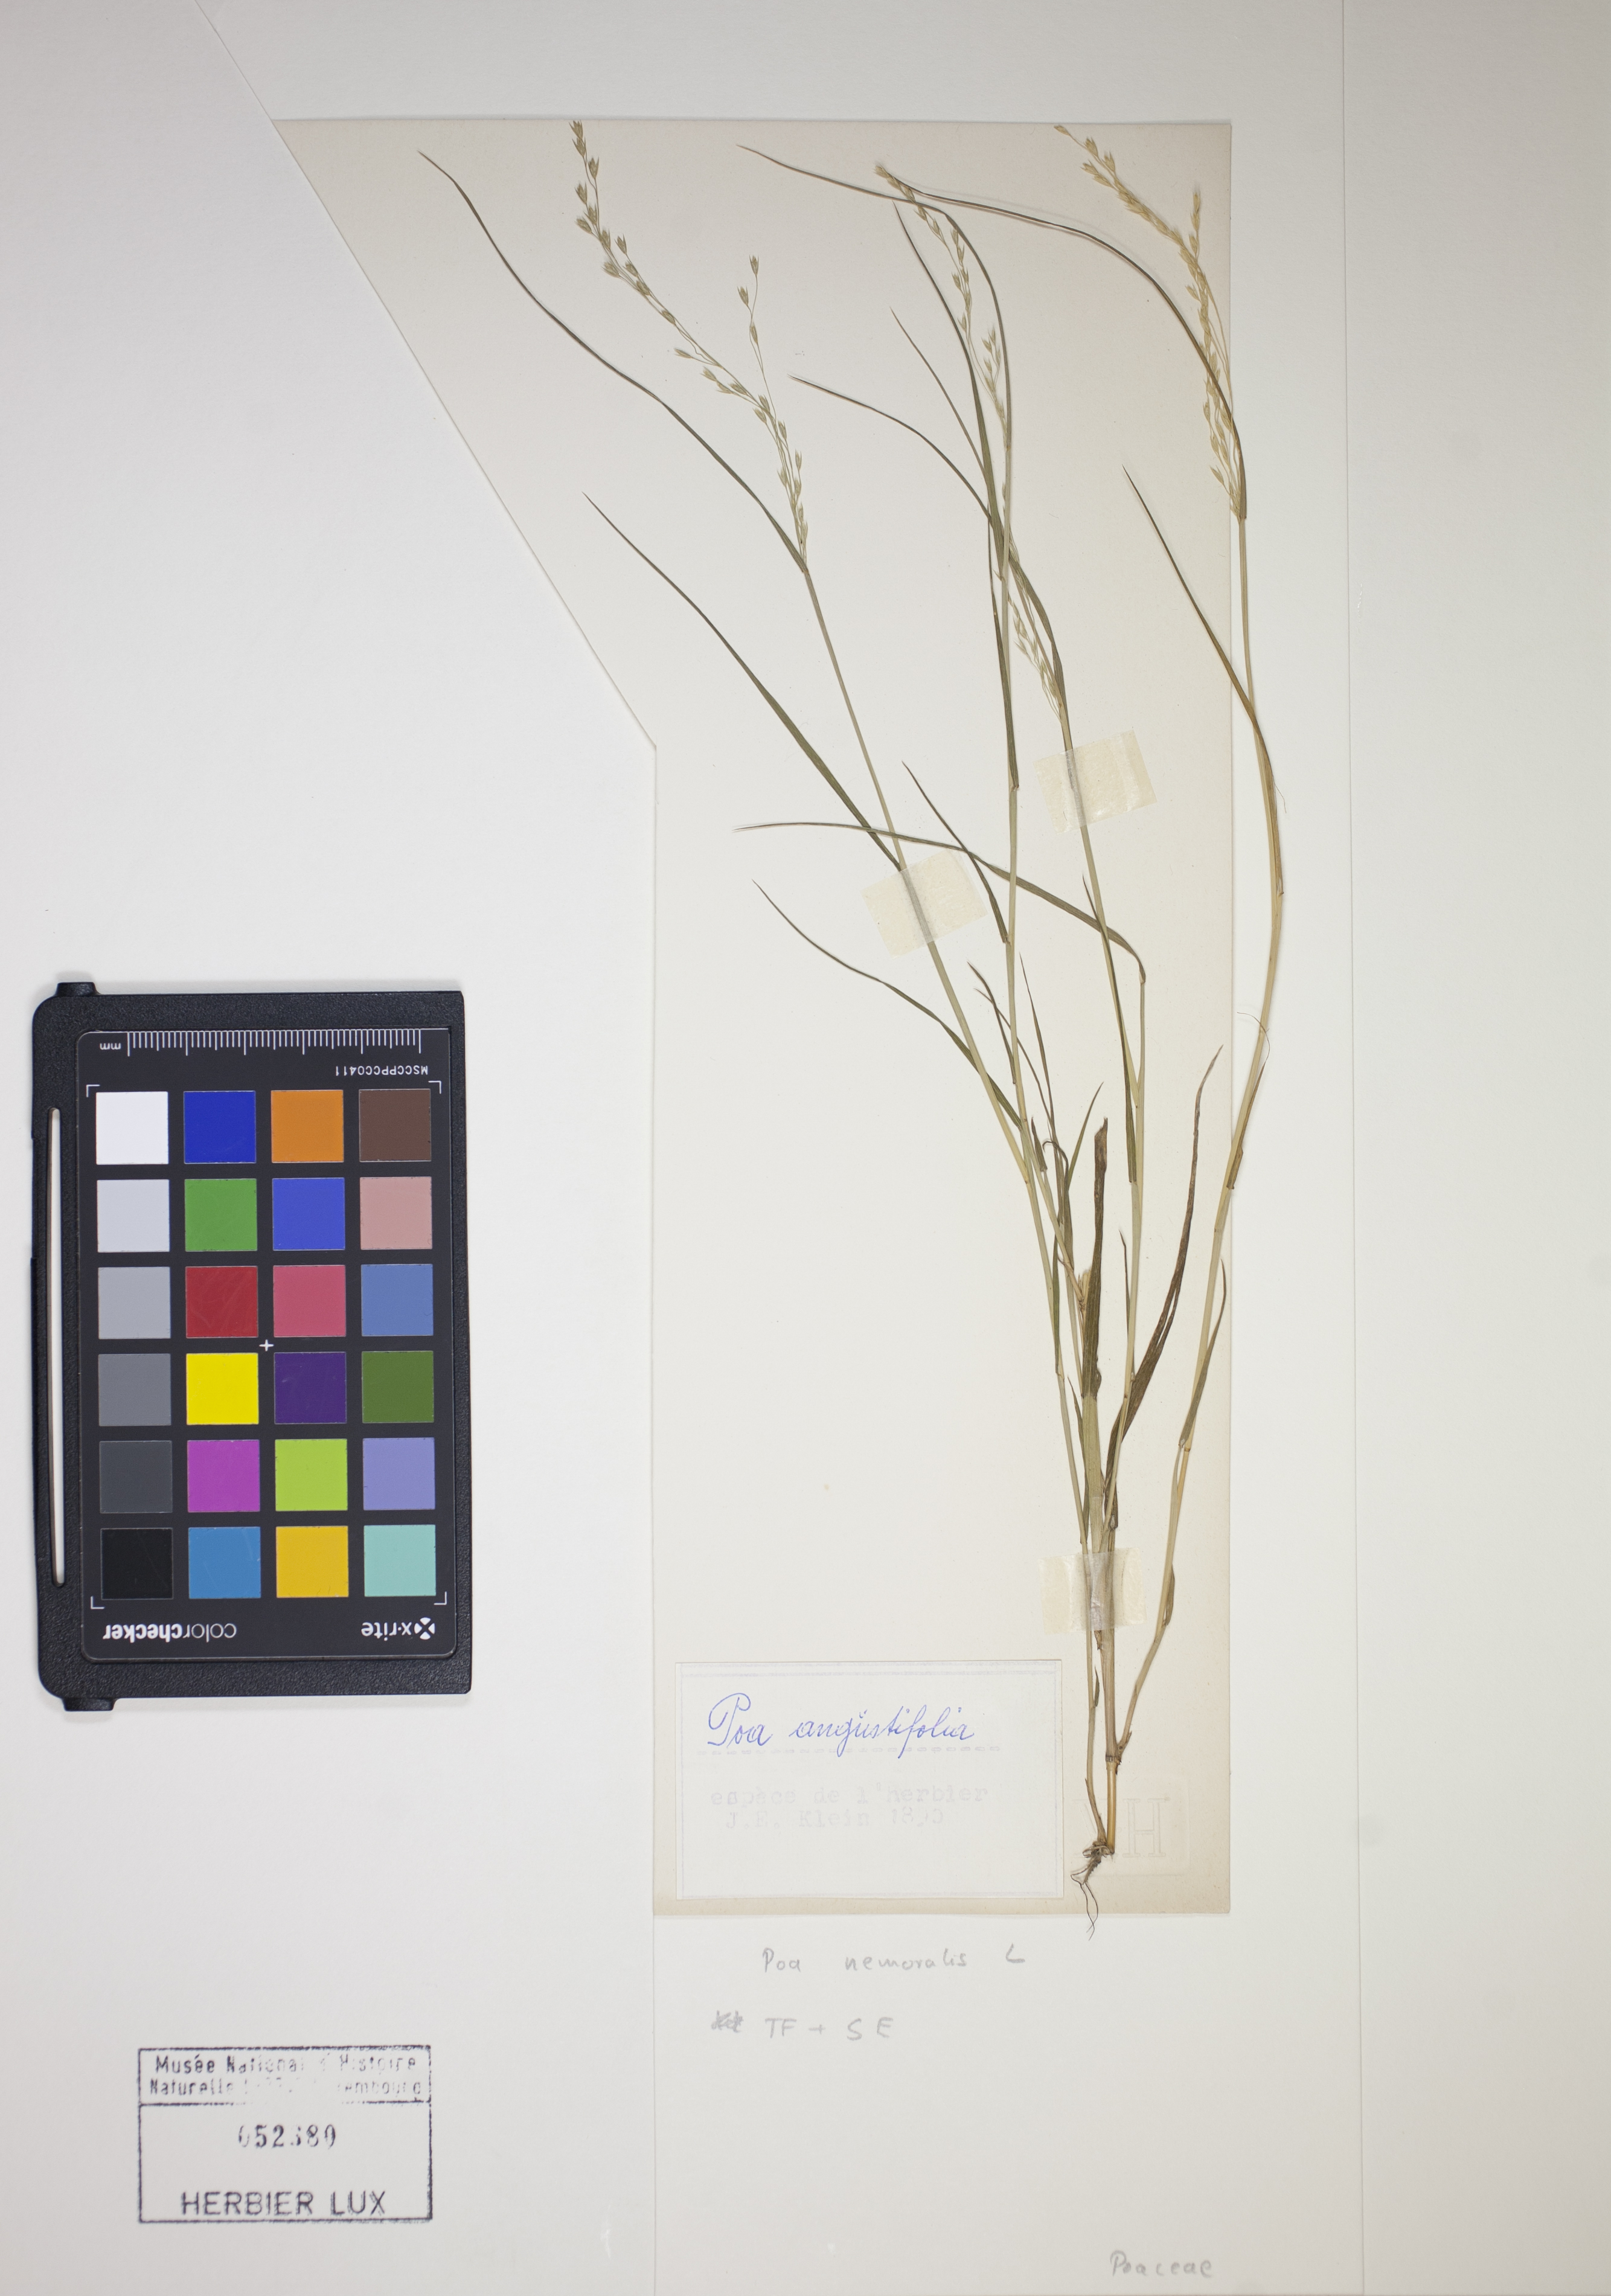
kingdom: Plantae
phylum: Tracheophyta
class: Liliopsida
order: Poales
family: Poaceae
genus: Poa
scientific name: Poa nemoralis
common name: Wood bluegrass
